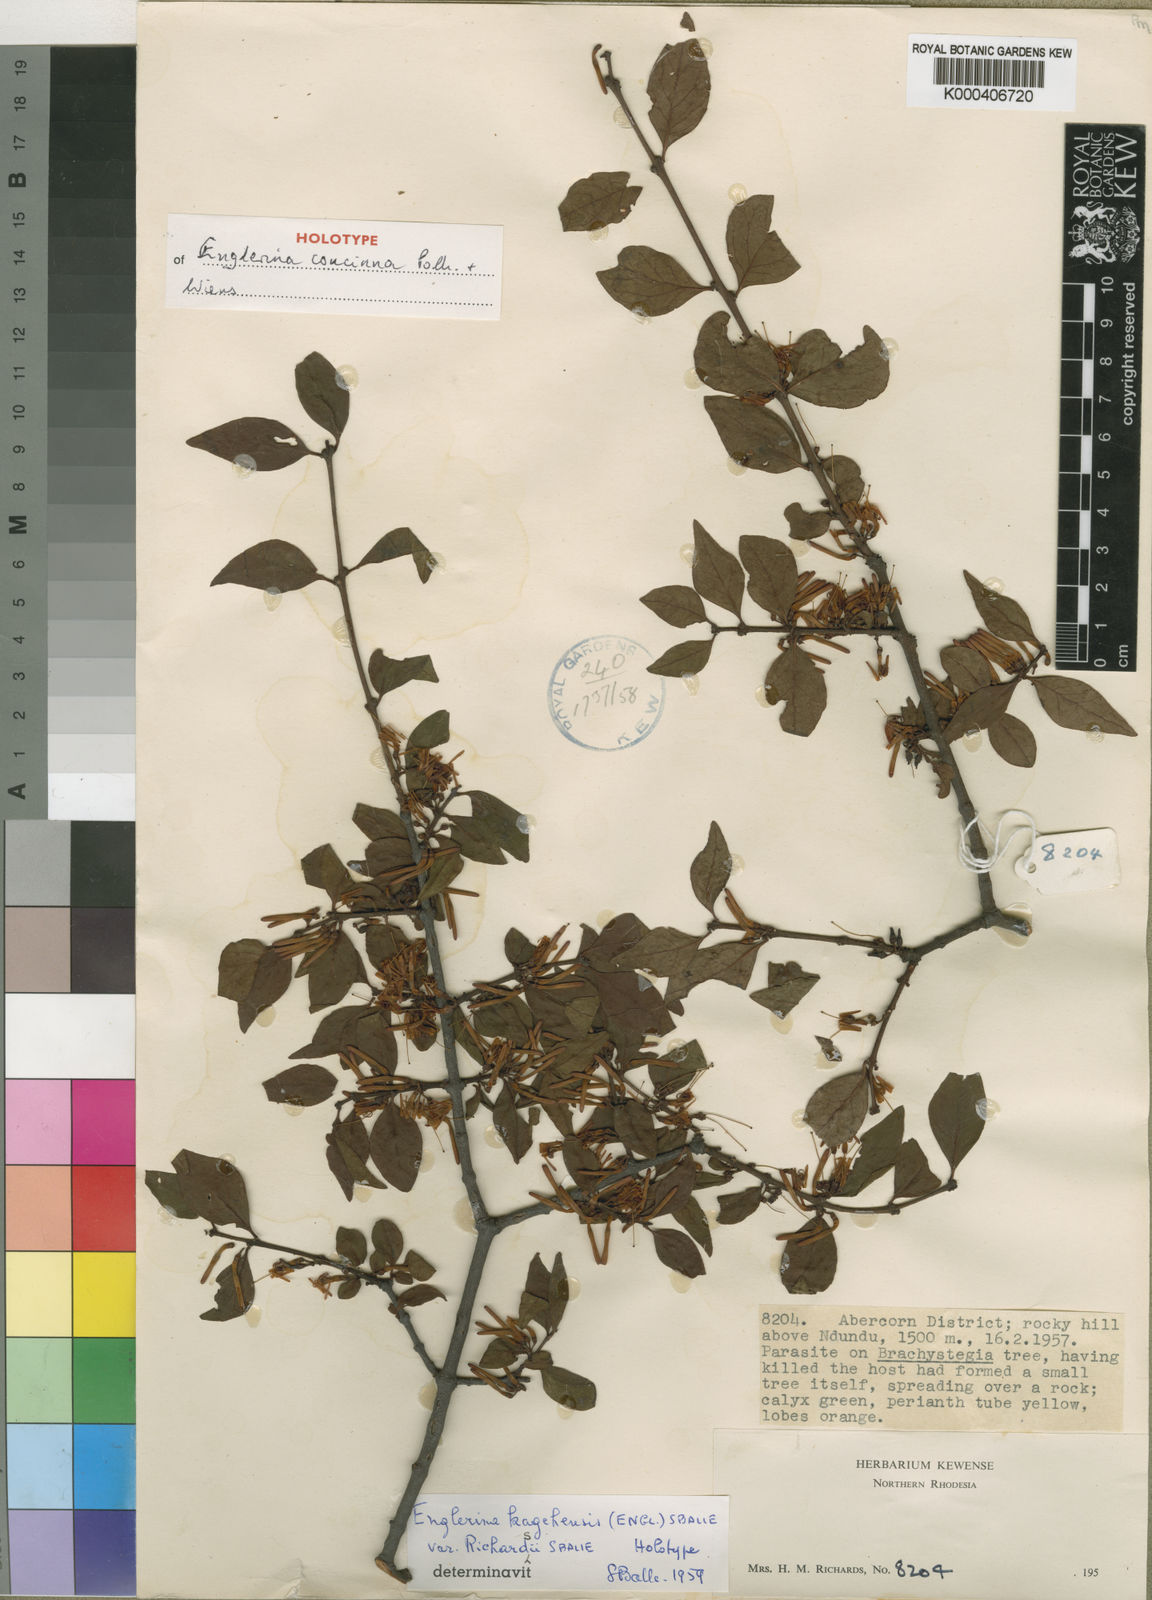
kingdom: Plantae
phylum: Tracheophyta
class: Magnoliopsida
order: Santalales
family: Loranthaceae
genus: Englerina
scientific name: Englerina concinna
